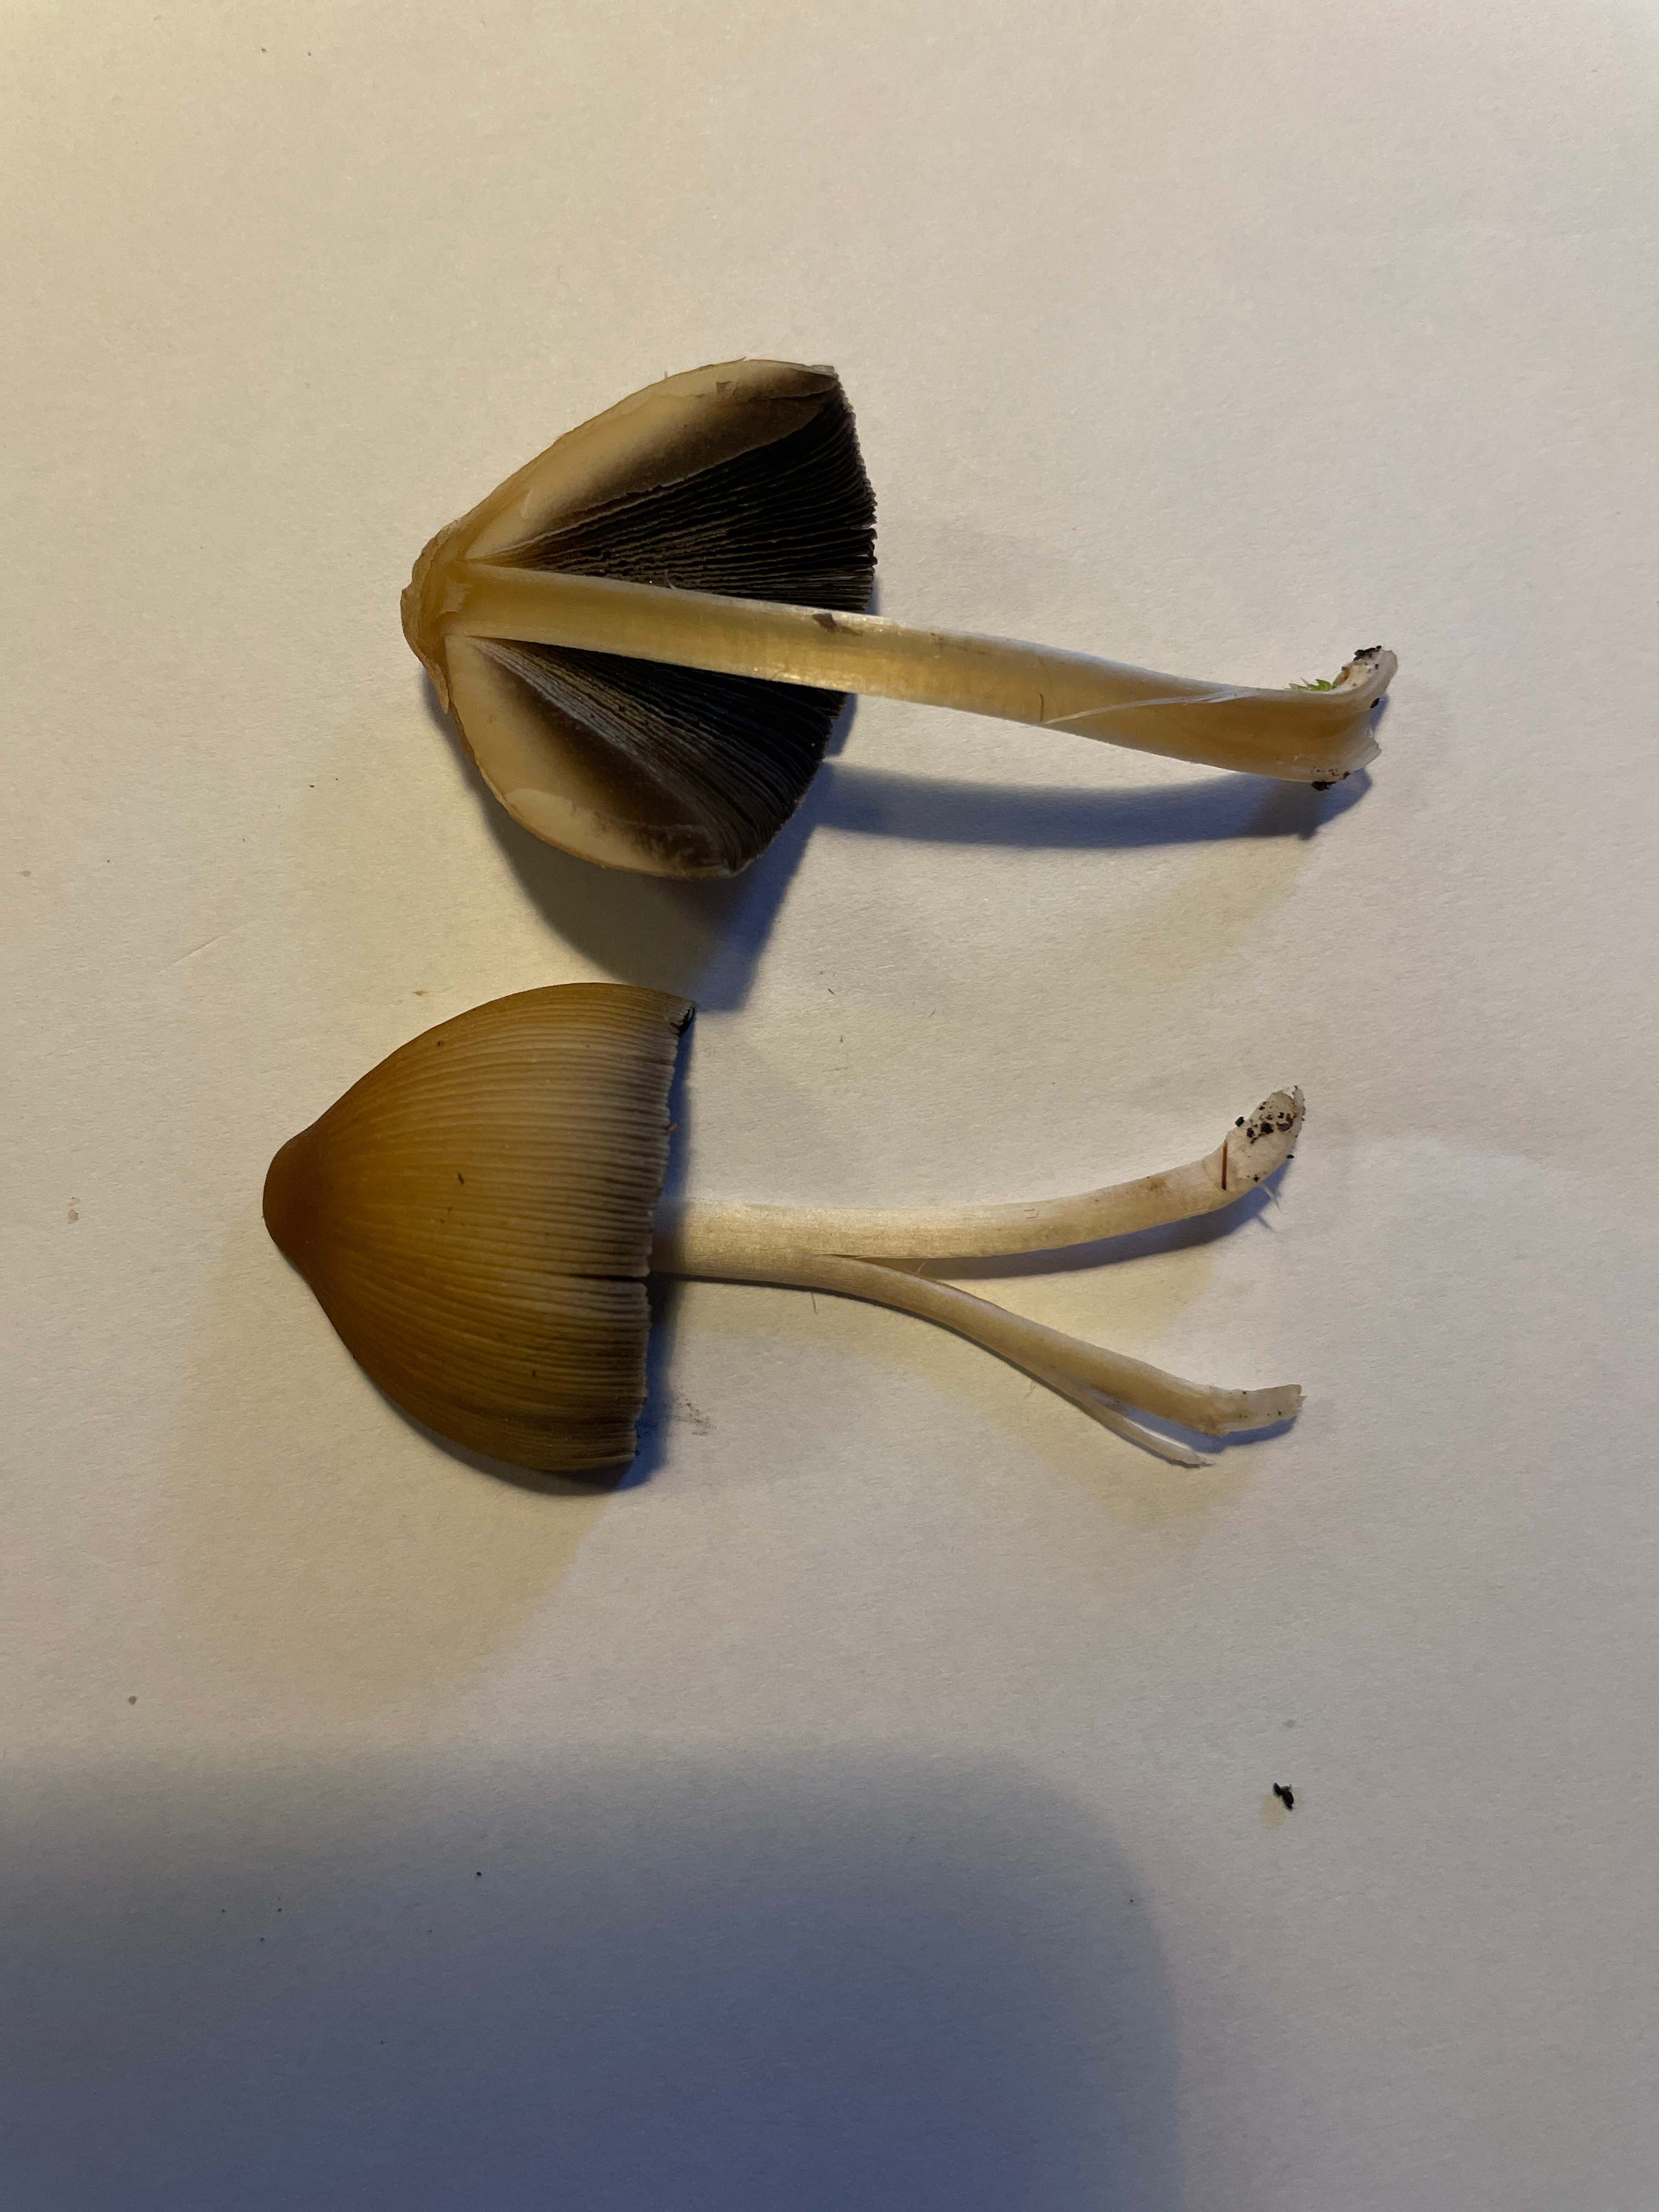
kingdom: Fungi
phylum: Basidiomycota
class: Agaricomycetes
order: Agaricales
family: Psathyrellaceae
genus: Coprinellus
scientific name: Coprinellus micaceus
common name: glimmer-blækhat
